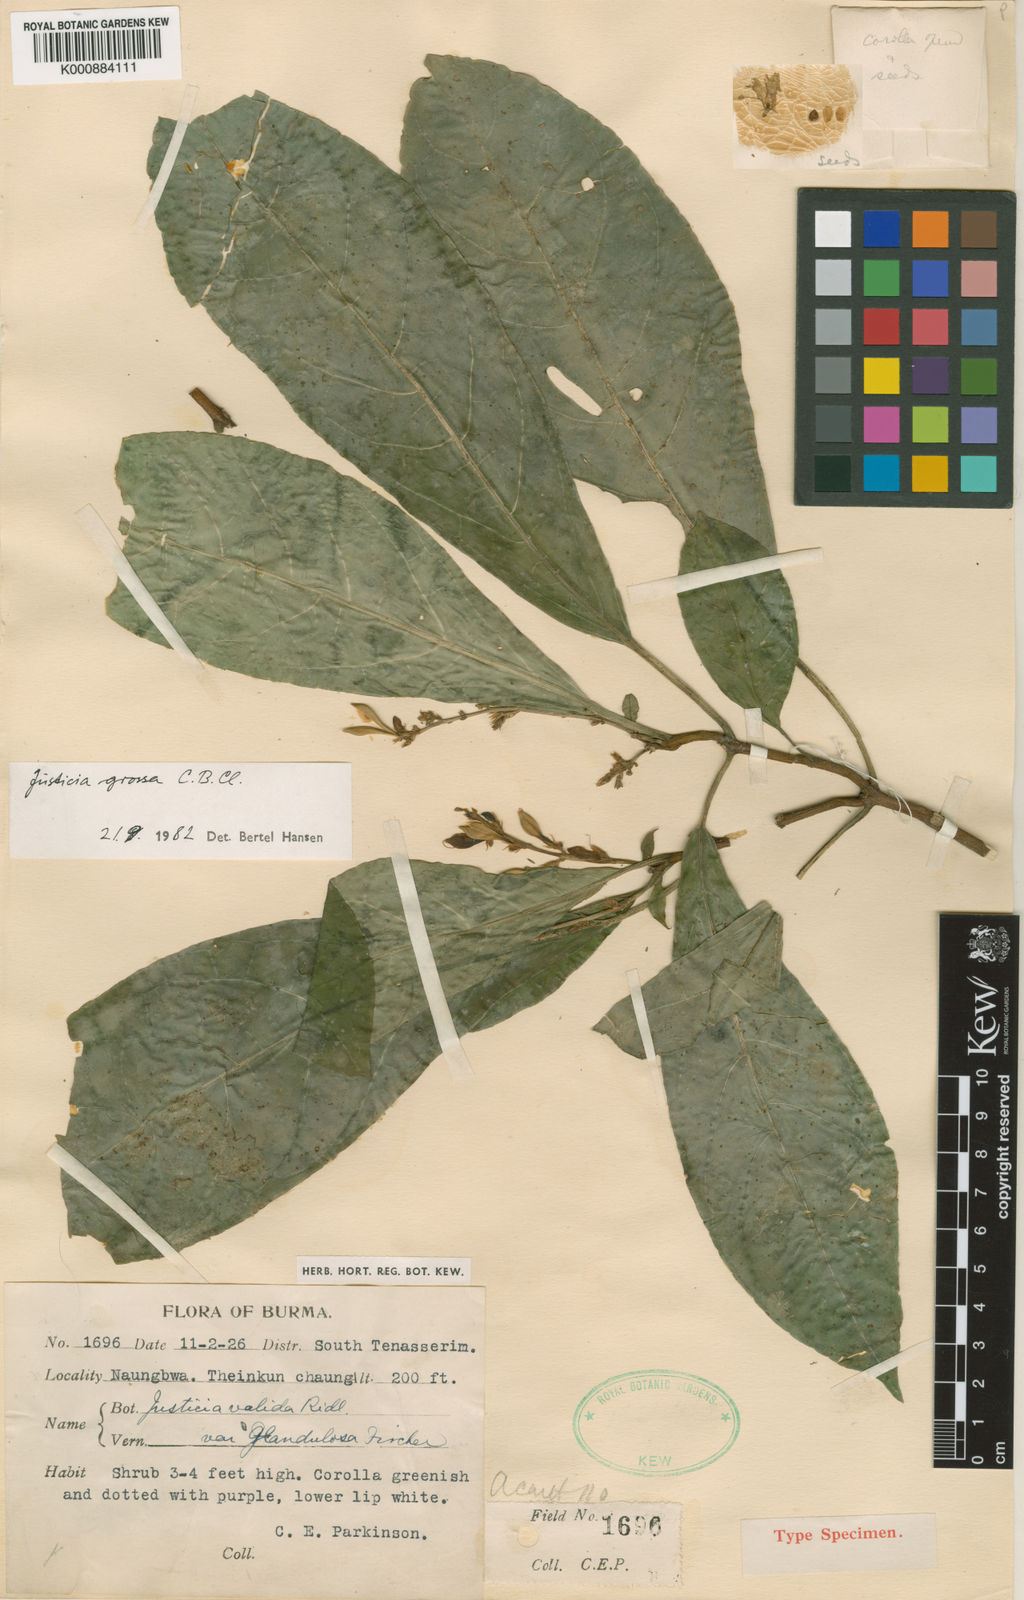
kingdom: Plantae
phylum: Tracheophyta
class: Magnoliopsida
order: Lamiales
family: Acanthaceae
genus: Ecbolium
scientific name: Ecbolium grossum
